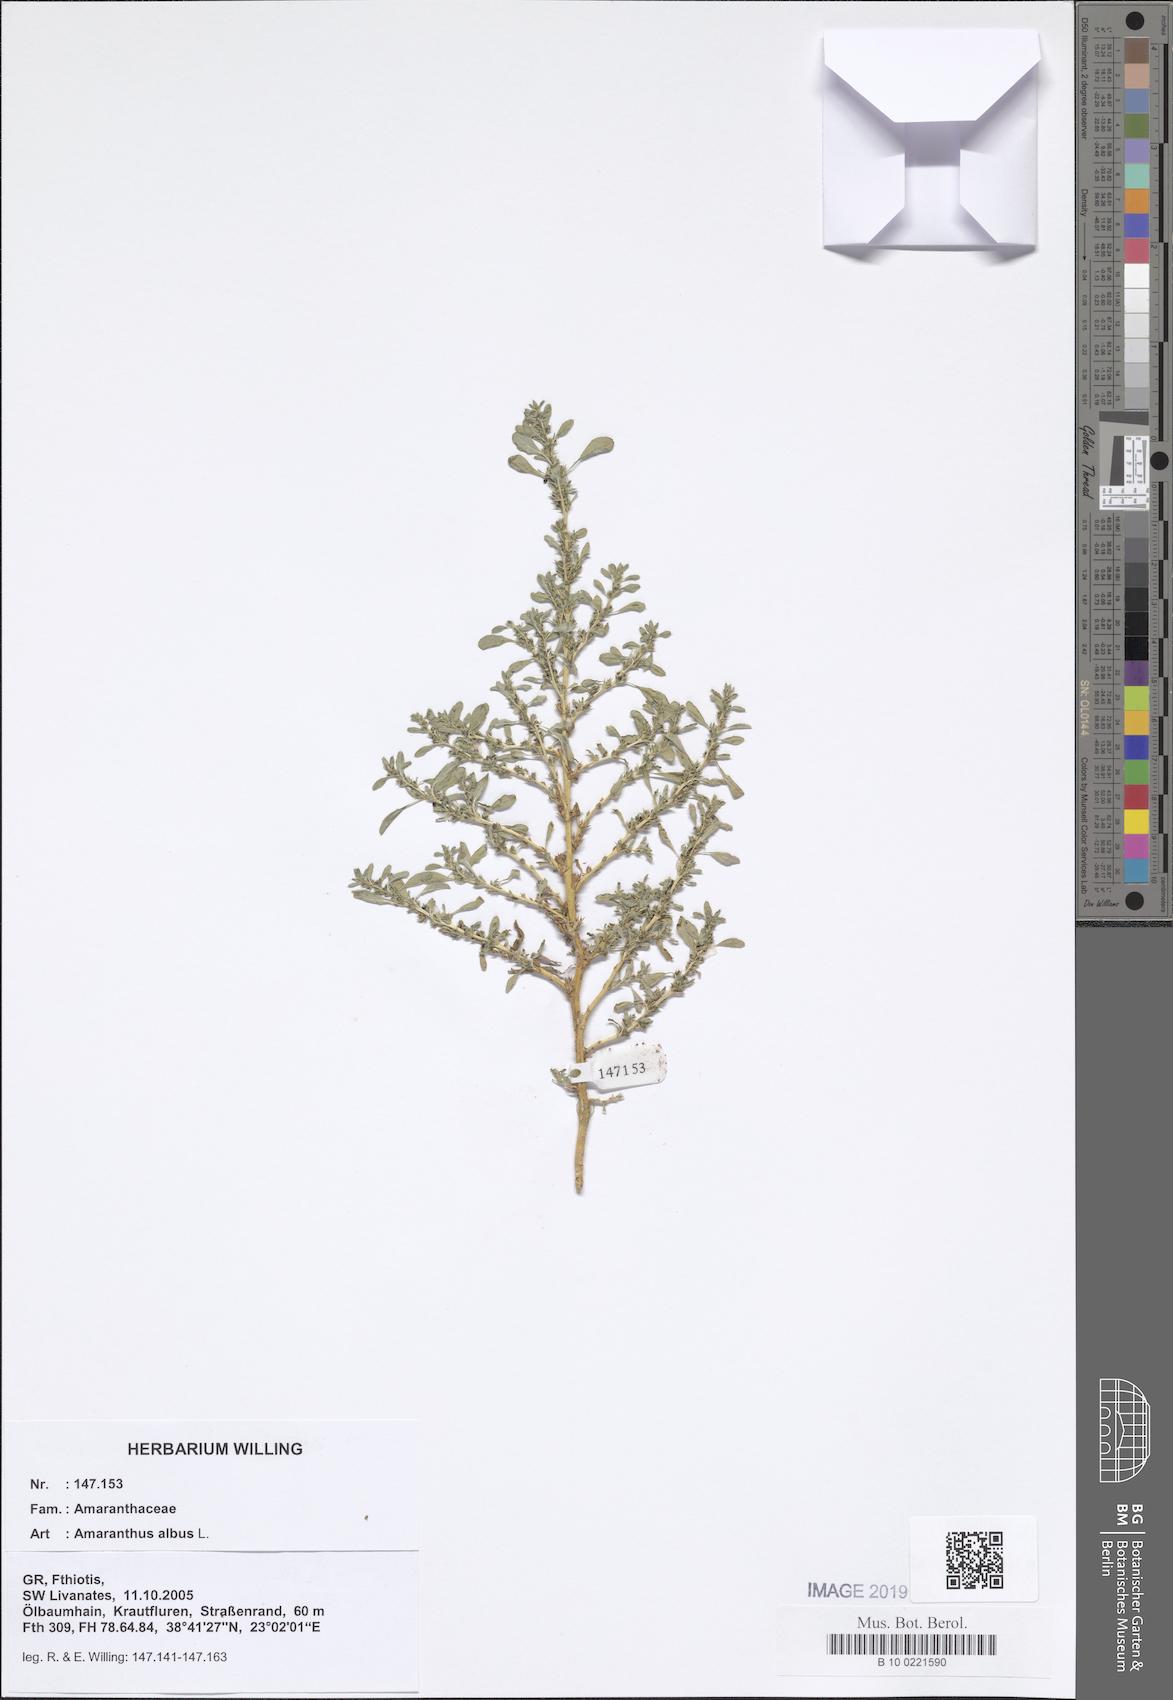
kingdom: Plantae
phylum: Tracheophyta
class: Magnoliopsida
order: Caryophyllales
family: Amaranthaceae
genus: Amaranthus
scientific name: Amaranthus albus
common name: White pigweed
